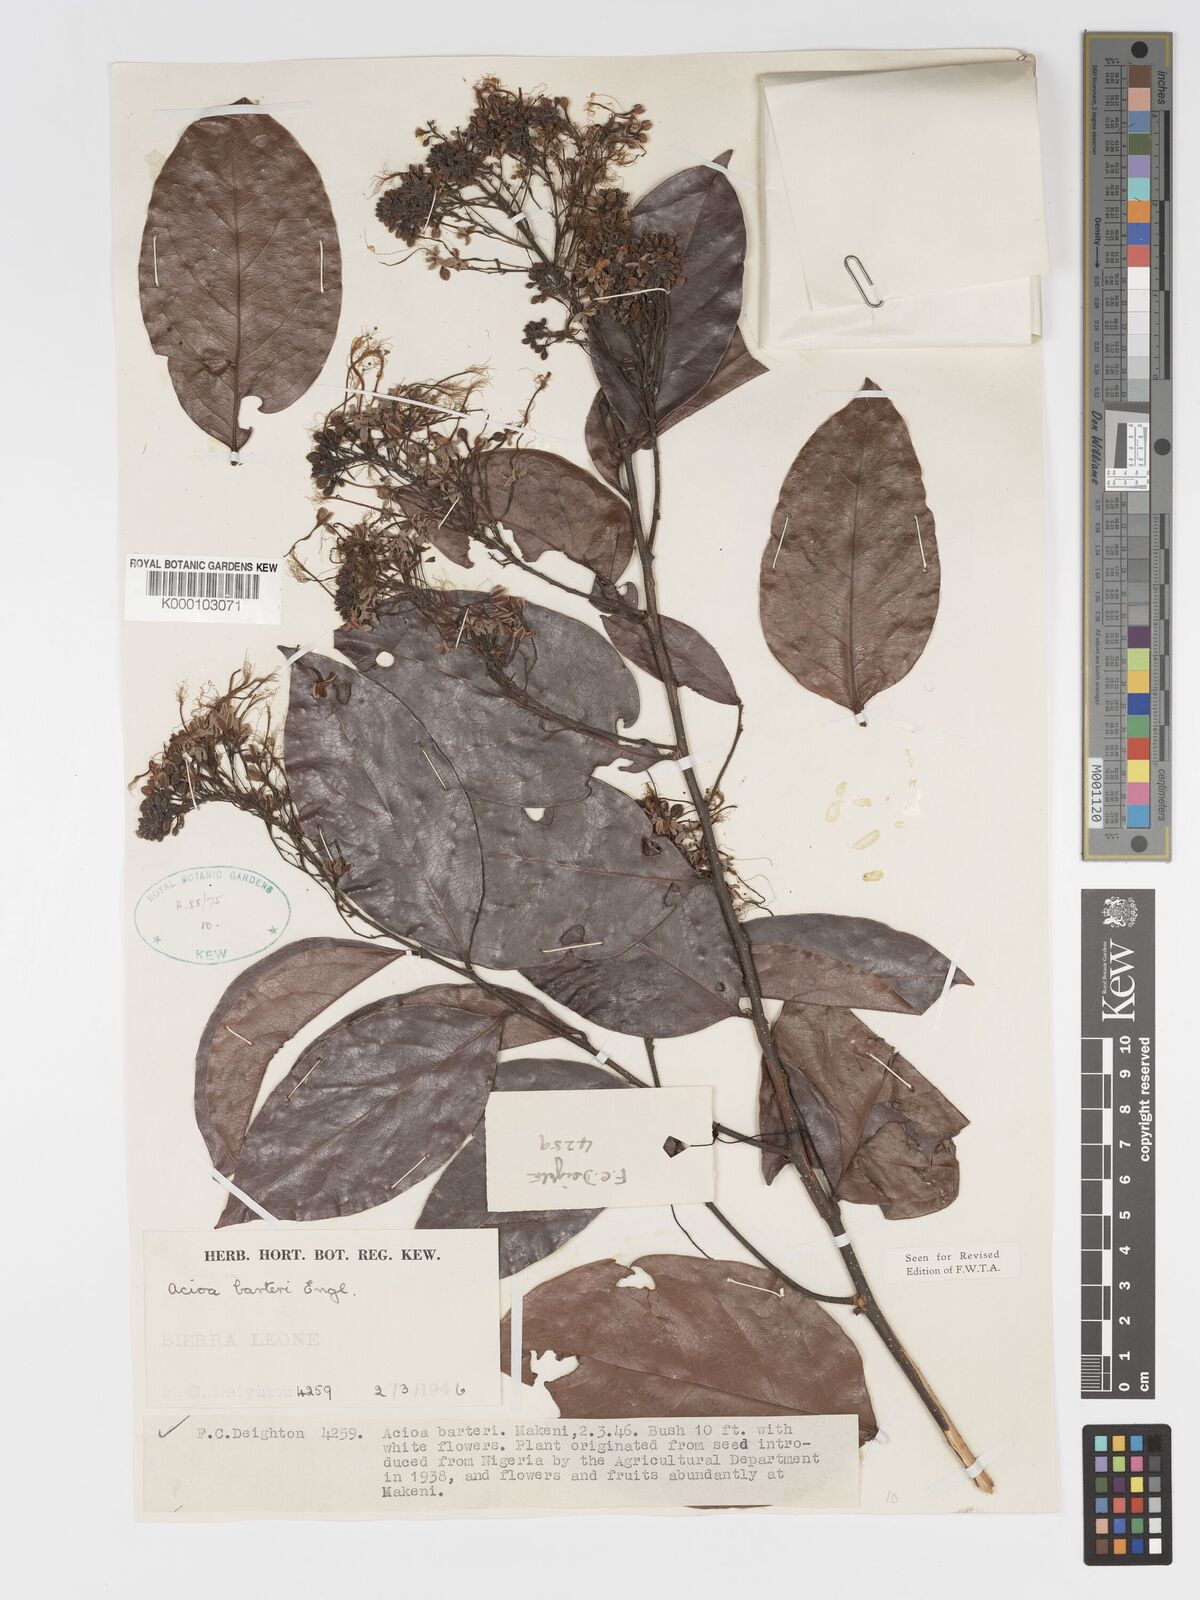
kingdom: Plantae
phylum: Tracheophyta
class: Magnoliopsida
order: Malpighiales
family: Chrysobalanaceae
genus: Dactyladenia
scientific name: Dactyladenia barteri
